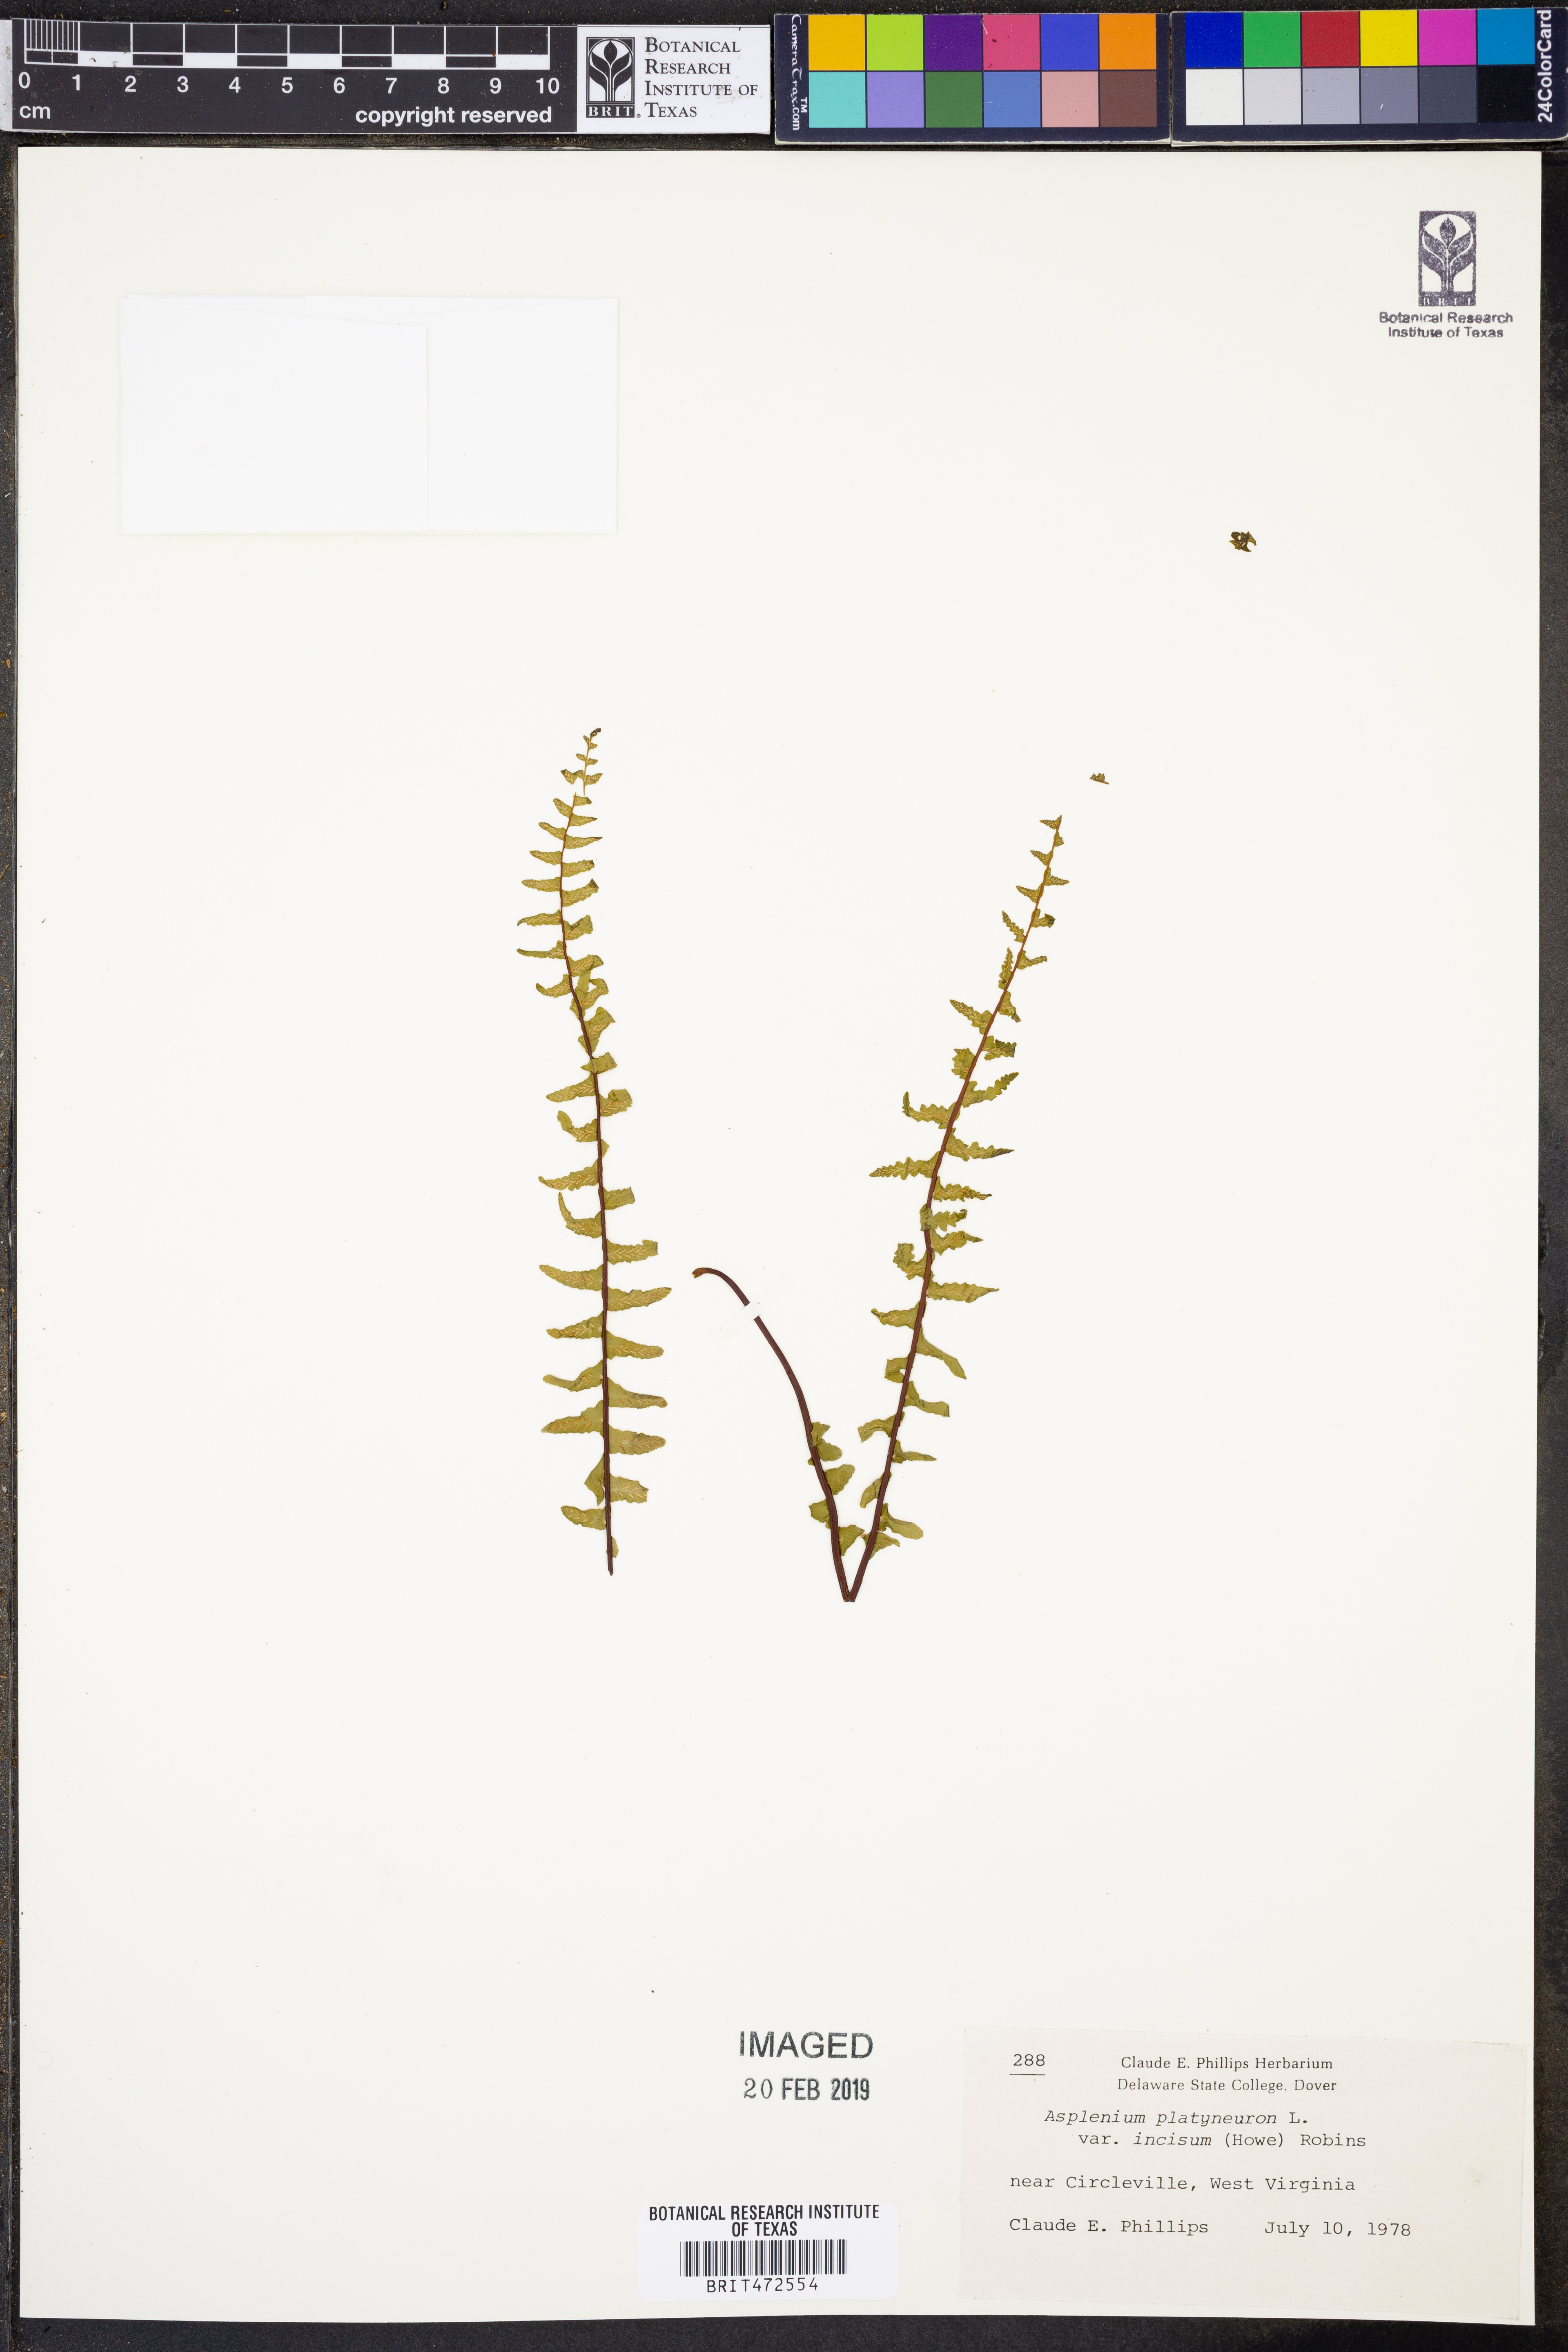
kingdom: Plantae
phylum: Tracheophyta
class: Polypodiopsida
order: Polypodiales
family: Aspleniaceae
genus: Asplenium
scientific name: Asplenium platyneuron
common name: Ebony spleenwort
